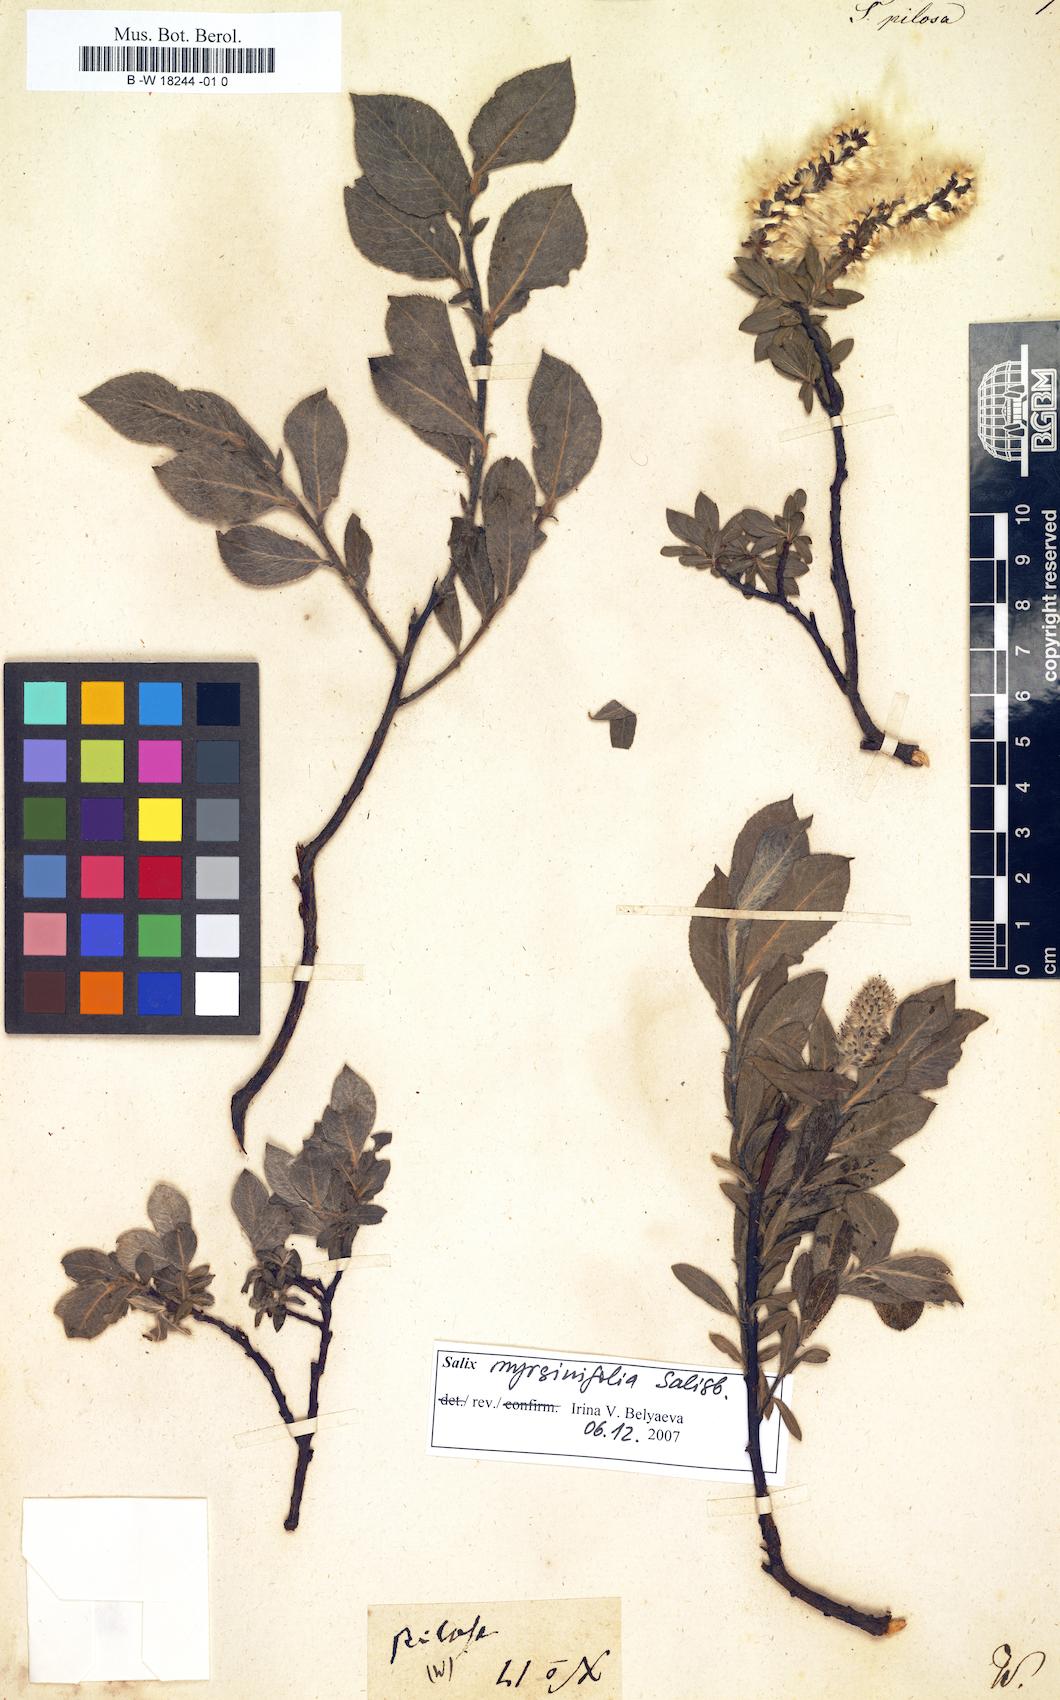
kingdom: Plantae
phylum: Tracheophyta
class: Magnoliopsida
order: Malpighiales
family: Salicaceae
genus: Salix
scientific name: Salix
